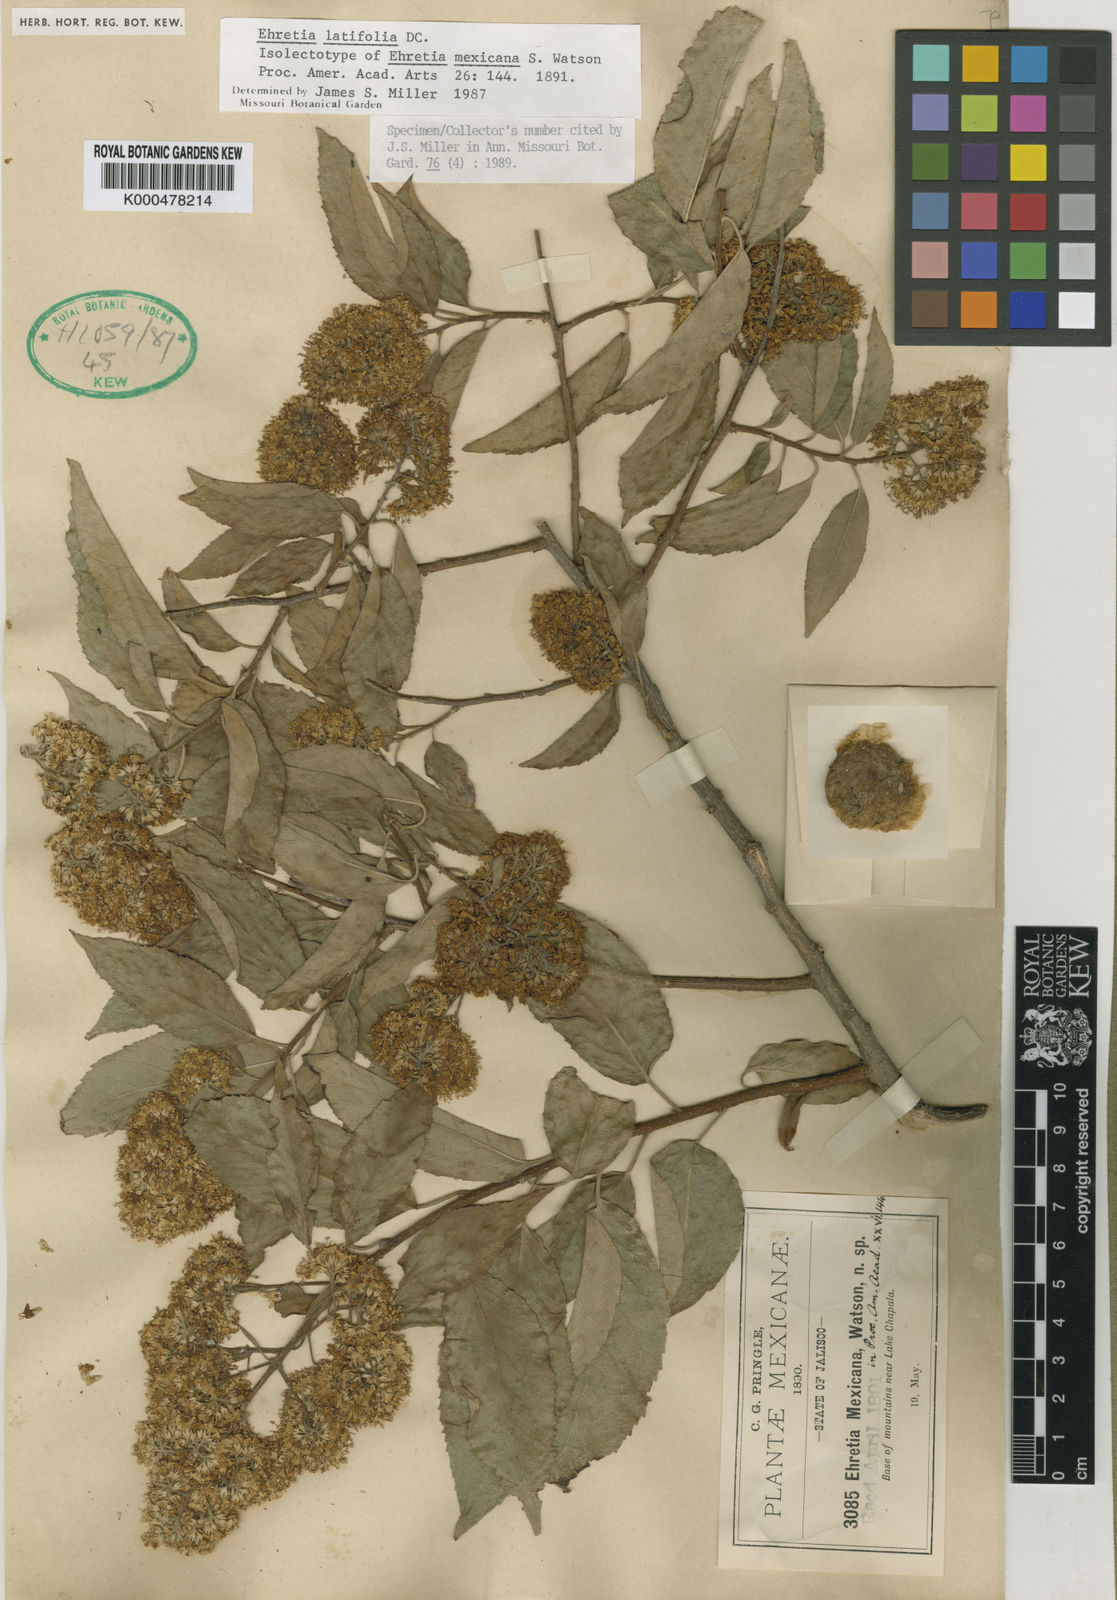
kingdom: Plantae
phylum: Tracheophyta
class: Magnoliopsida
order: Boraginales
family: Ehretiaceae
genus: Ehretia
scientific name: Ehretia latifolia
